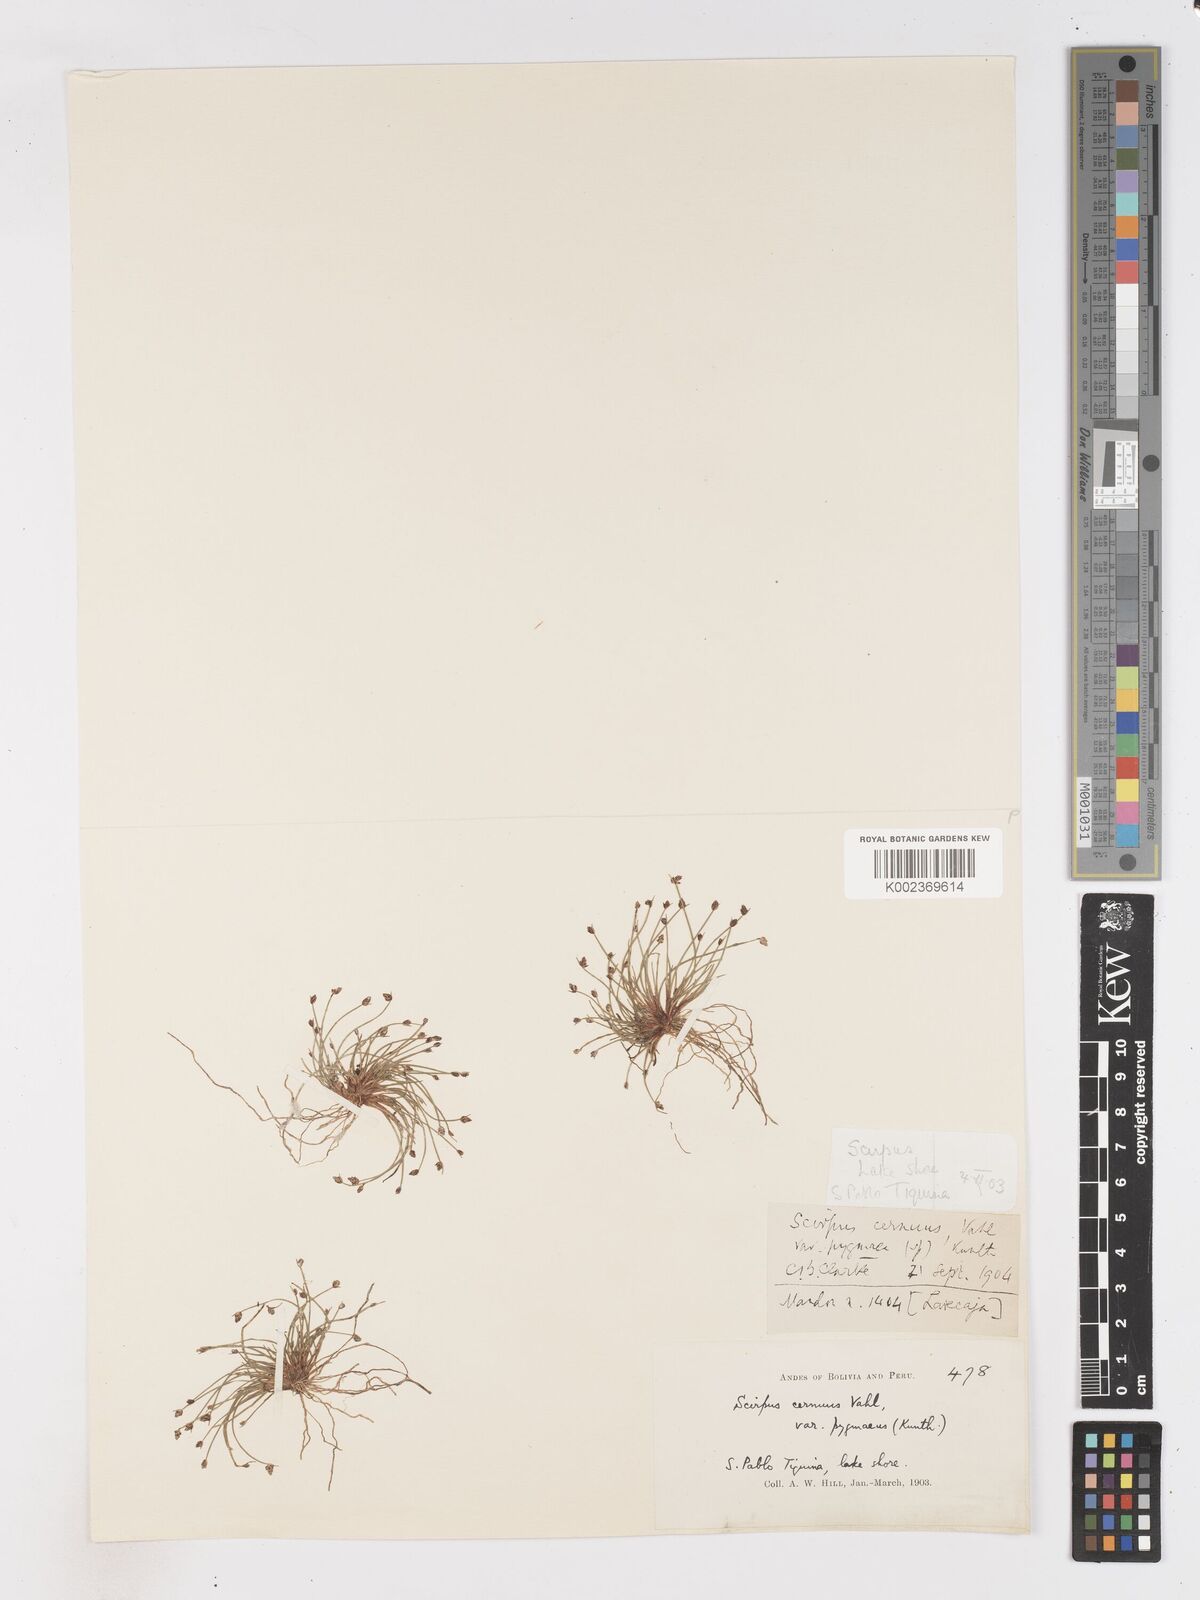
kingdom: Plantae
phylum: Tracheophyta
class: Liliopsida
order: Poales
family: Cyperaceae
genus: Isolepis
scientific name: Isolepis cernua
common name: Slender club-rush
